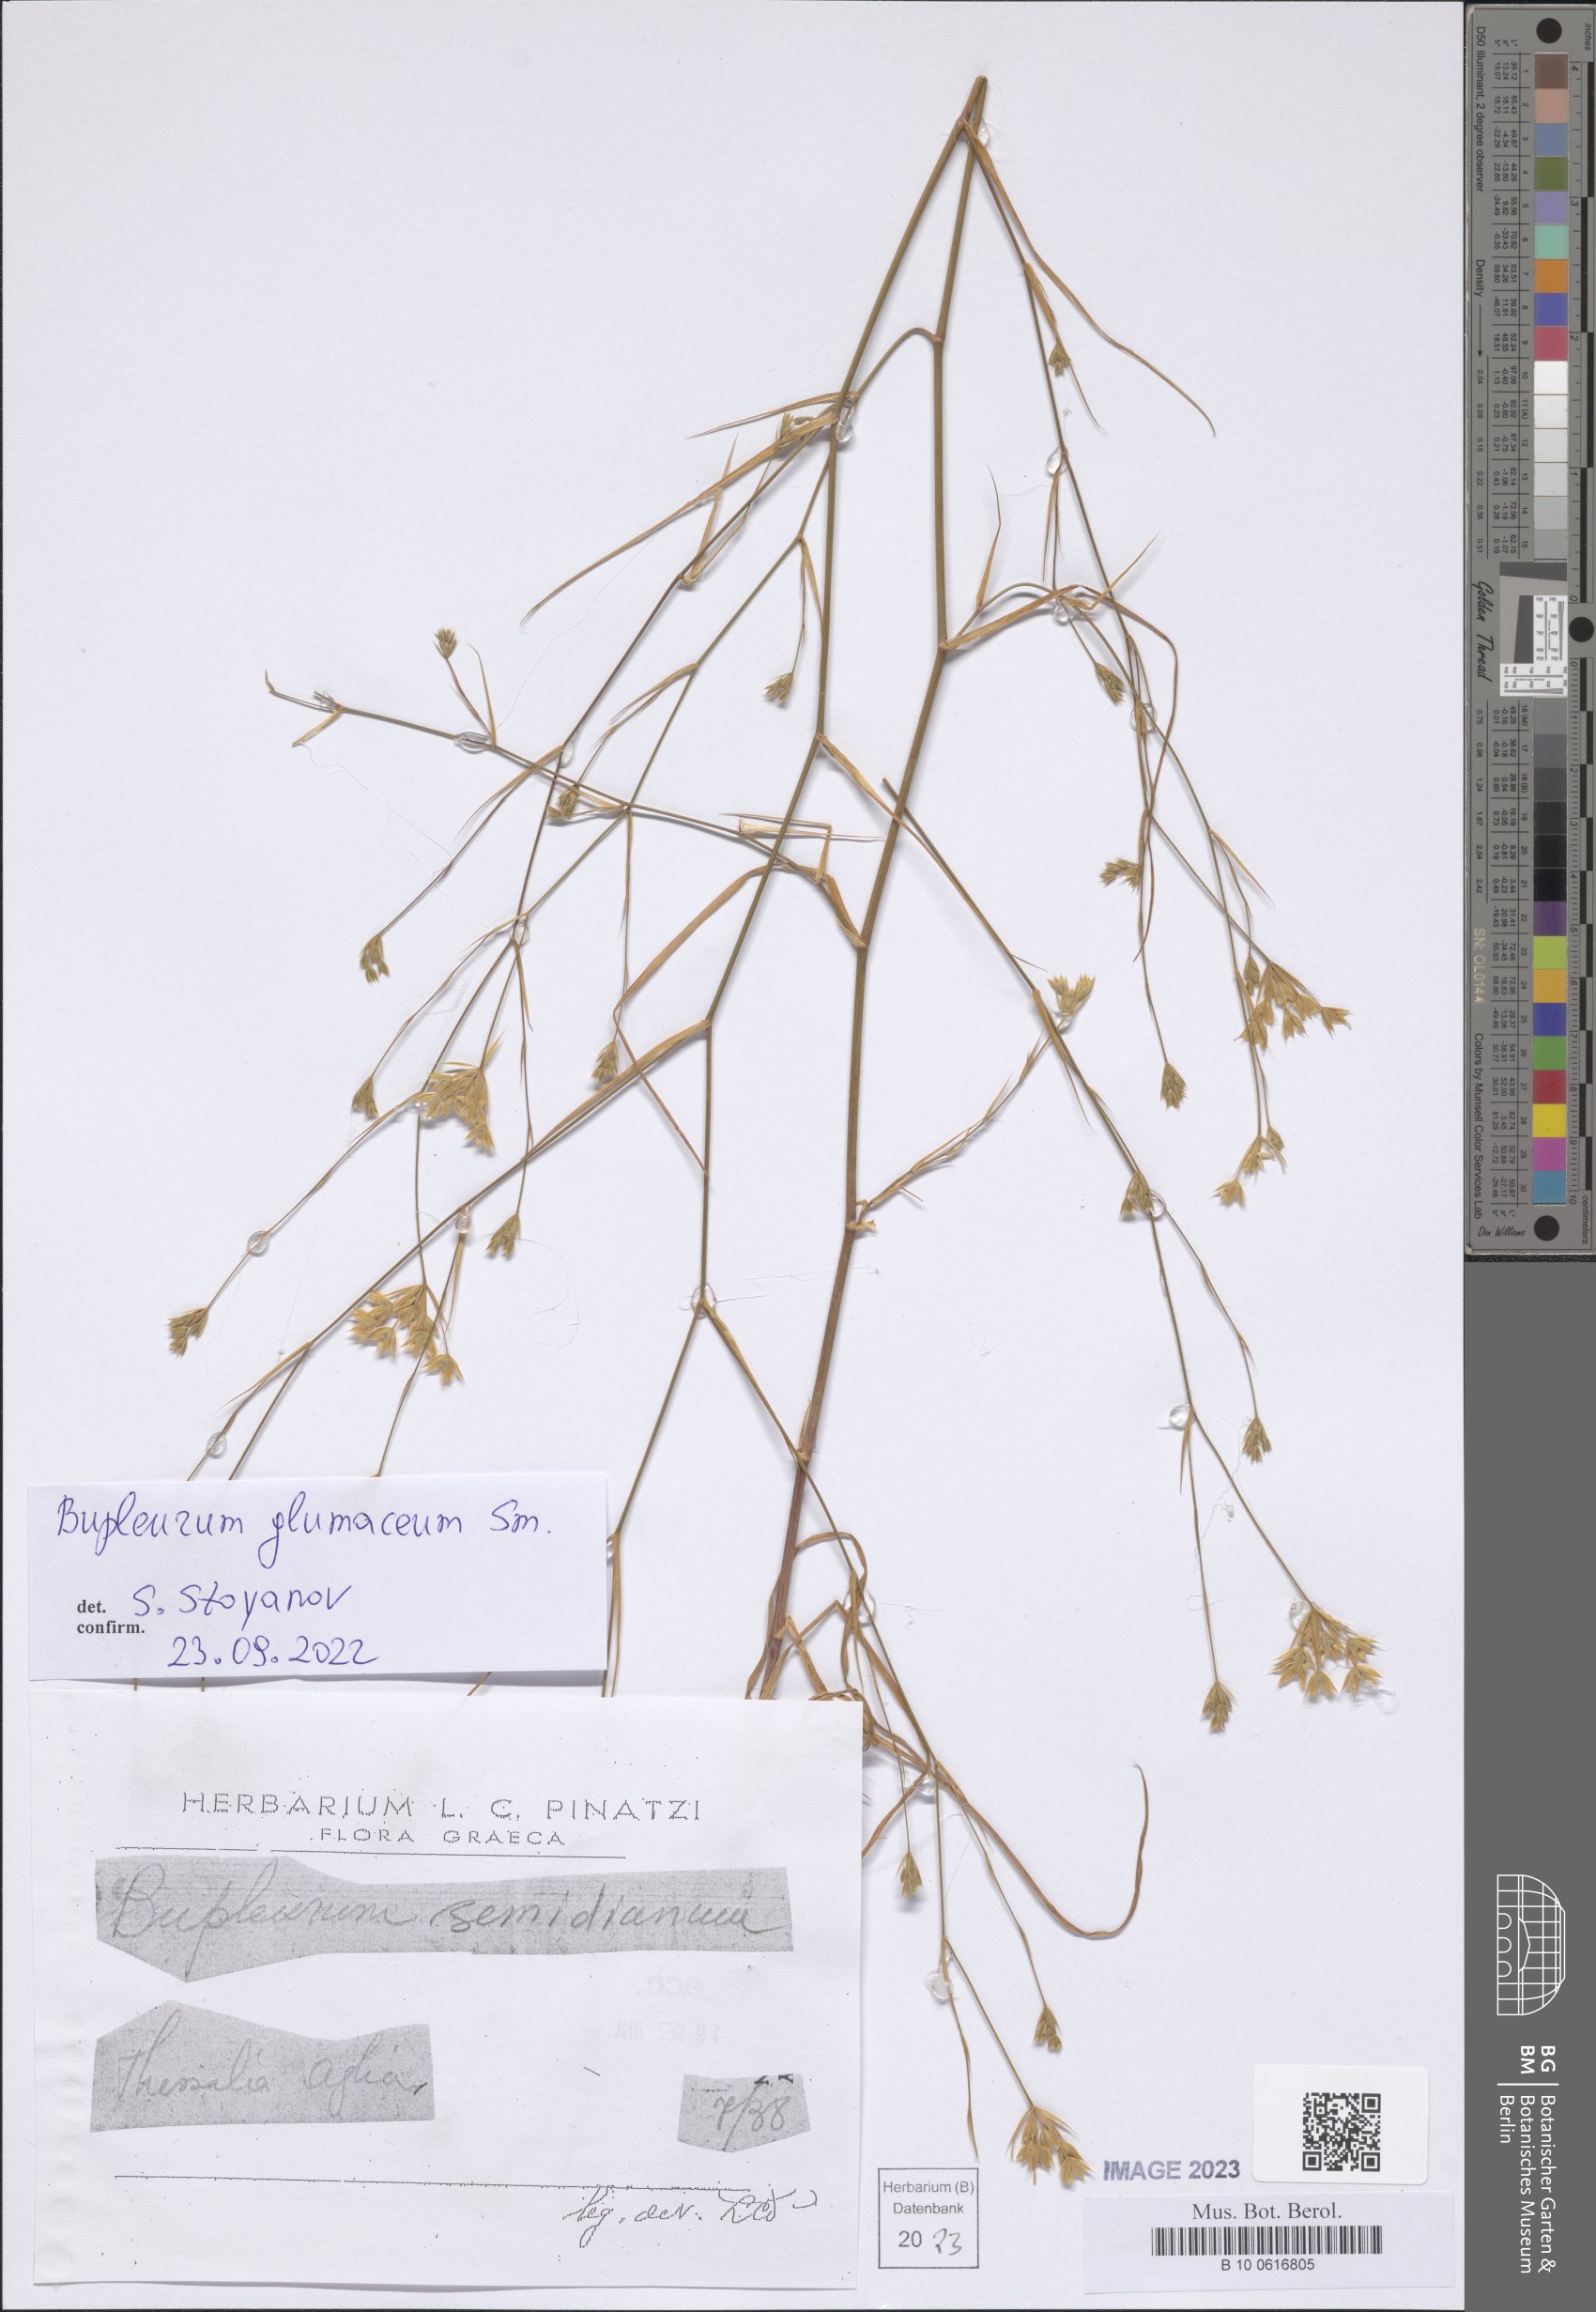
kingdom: Plantae
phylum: Tracheophyta
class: Magnoliopsida
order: Apiales
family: Apiaceae
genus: Bupleurum
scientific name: Bupleurum glumaceum
